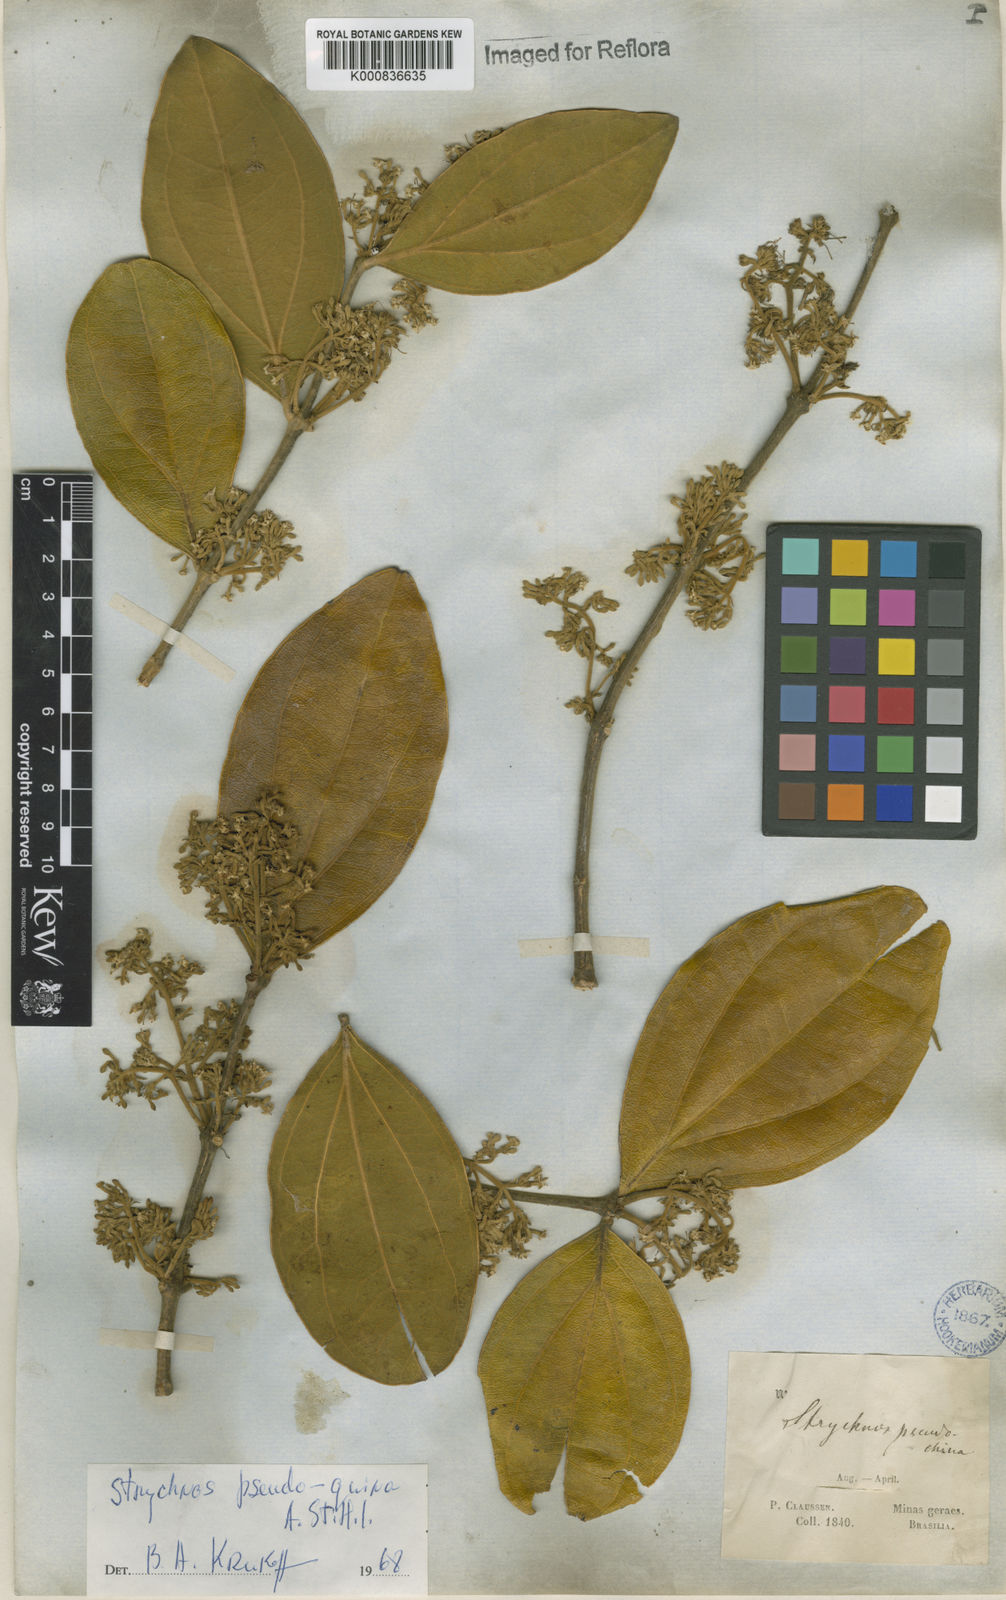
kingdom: Plantae
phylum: Tracheophyta
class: Magnoliopsida
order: Gentianales
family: Loganiaceae
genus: Strychnos
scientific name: Strychnos pseudoquina
